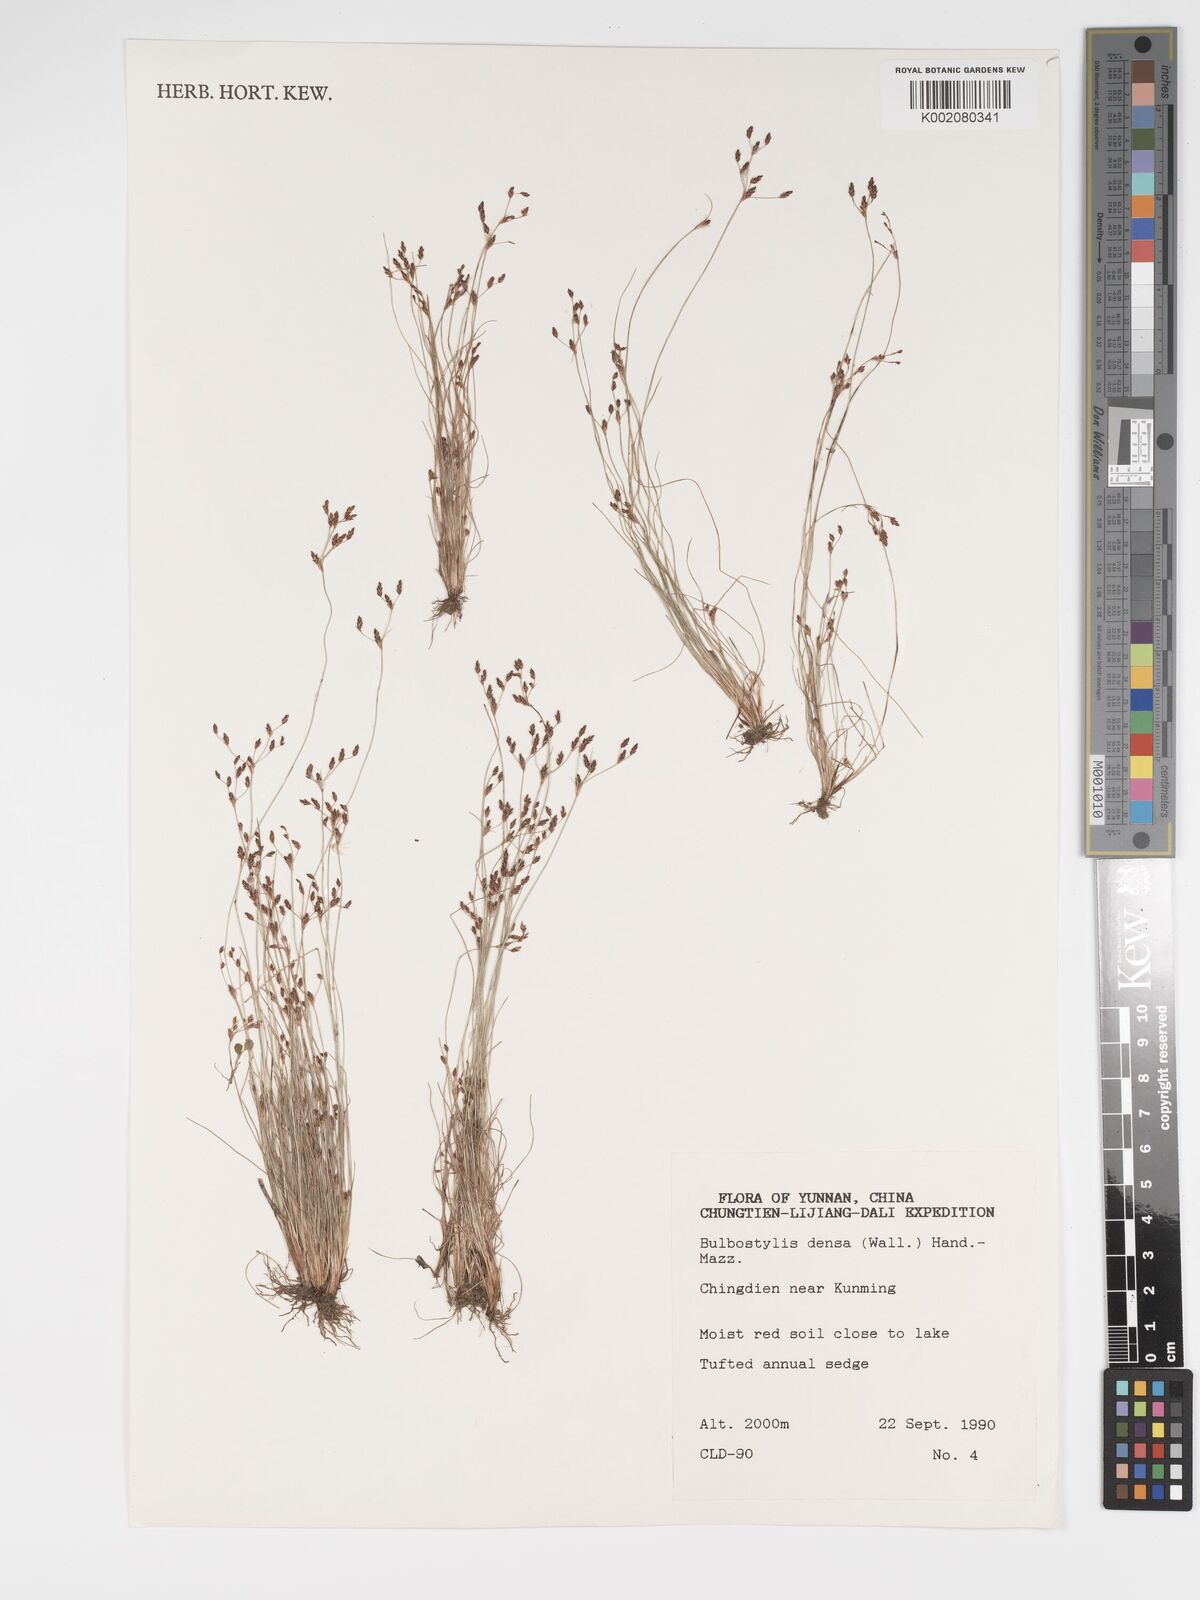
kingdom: Plantae
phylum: Tracheophyta
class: Liliopsida
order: Poales
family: Cyperaceae
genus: Bulbostylis
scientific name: Bulbostylis densa
